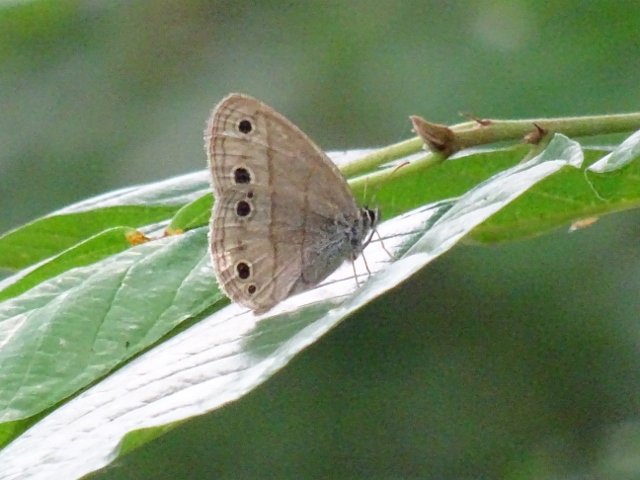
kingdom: Animalia
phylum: Arthropoda
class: Insecta
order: Lepidoptera
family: Nymphalidae
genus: Euptychia
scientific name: Euptychia cymela
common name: Little Wood Satyr
